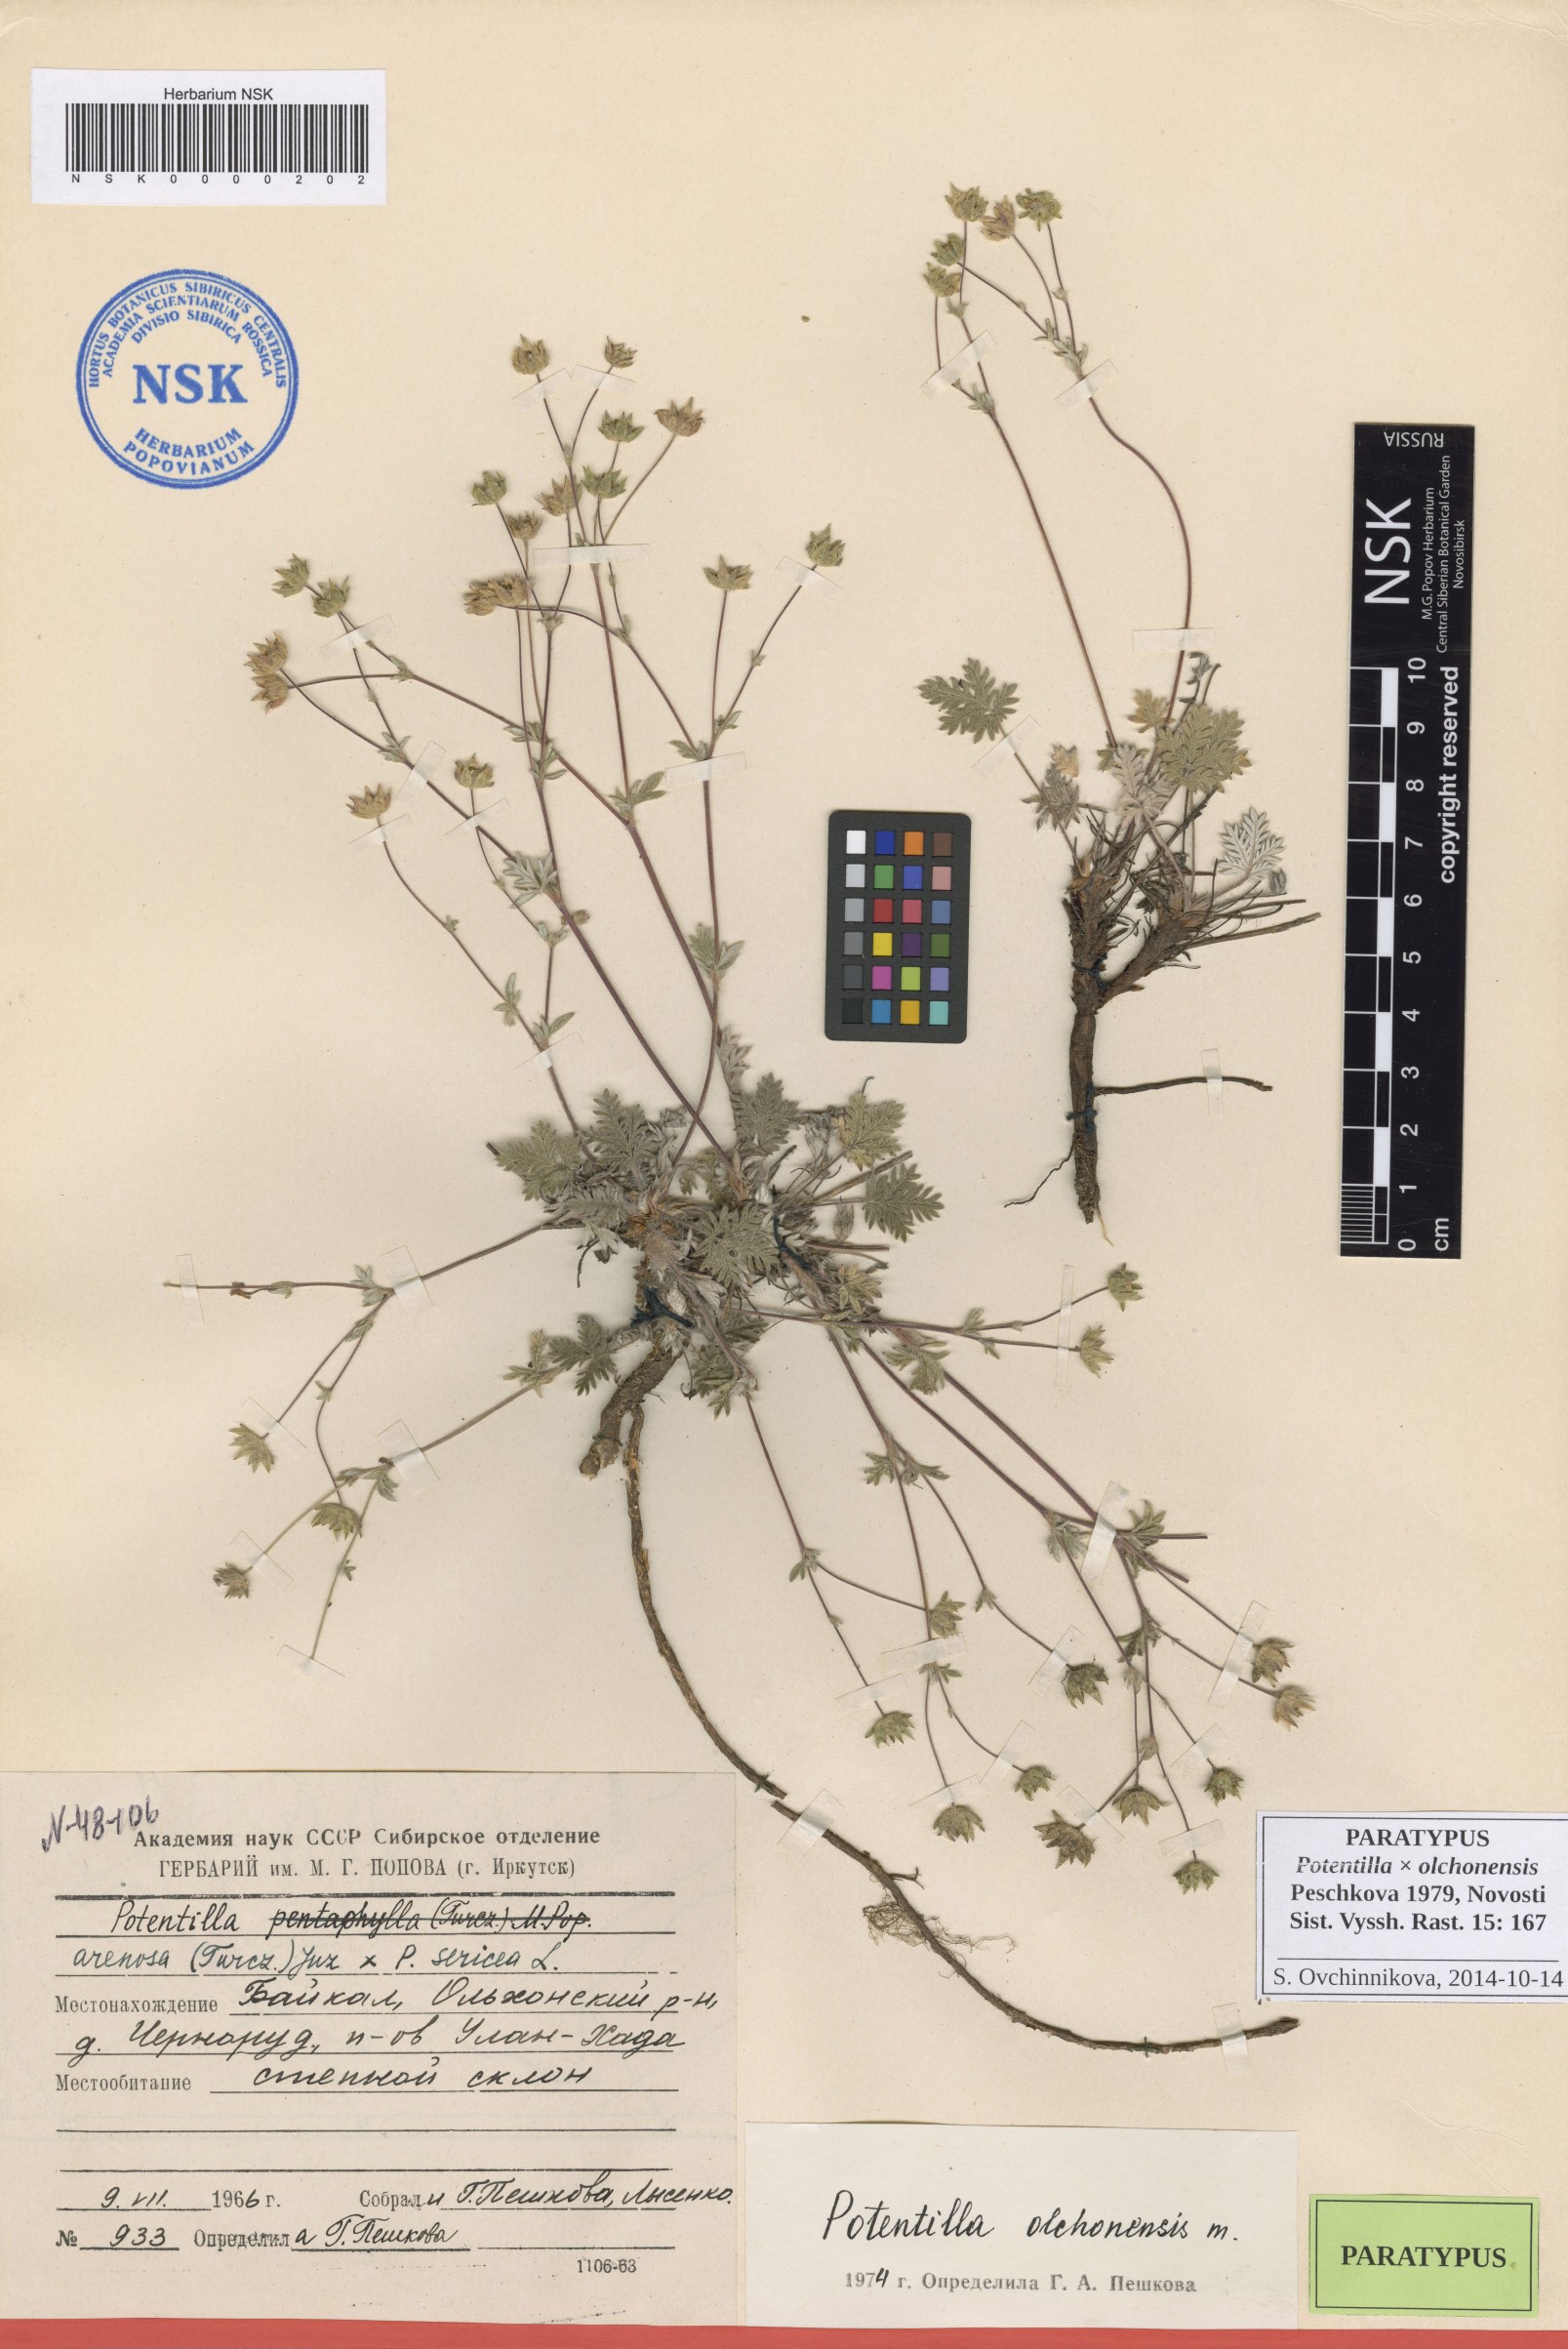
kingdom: Plantae
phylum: Tracheophyta
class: Magnoliopsida
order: Rosales
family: Rosaceae
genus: Potentilla
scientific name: Potentilla olchonensis
